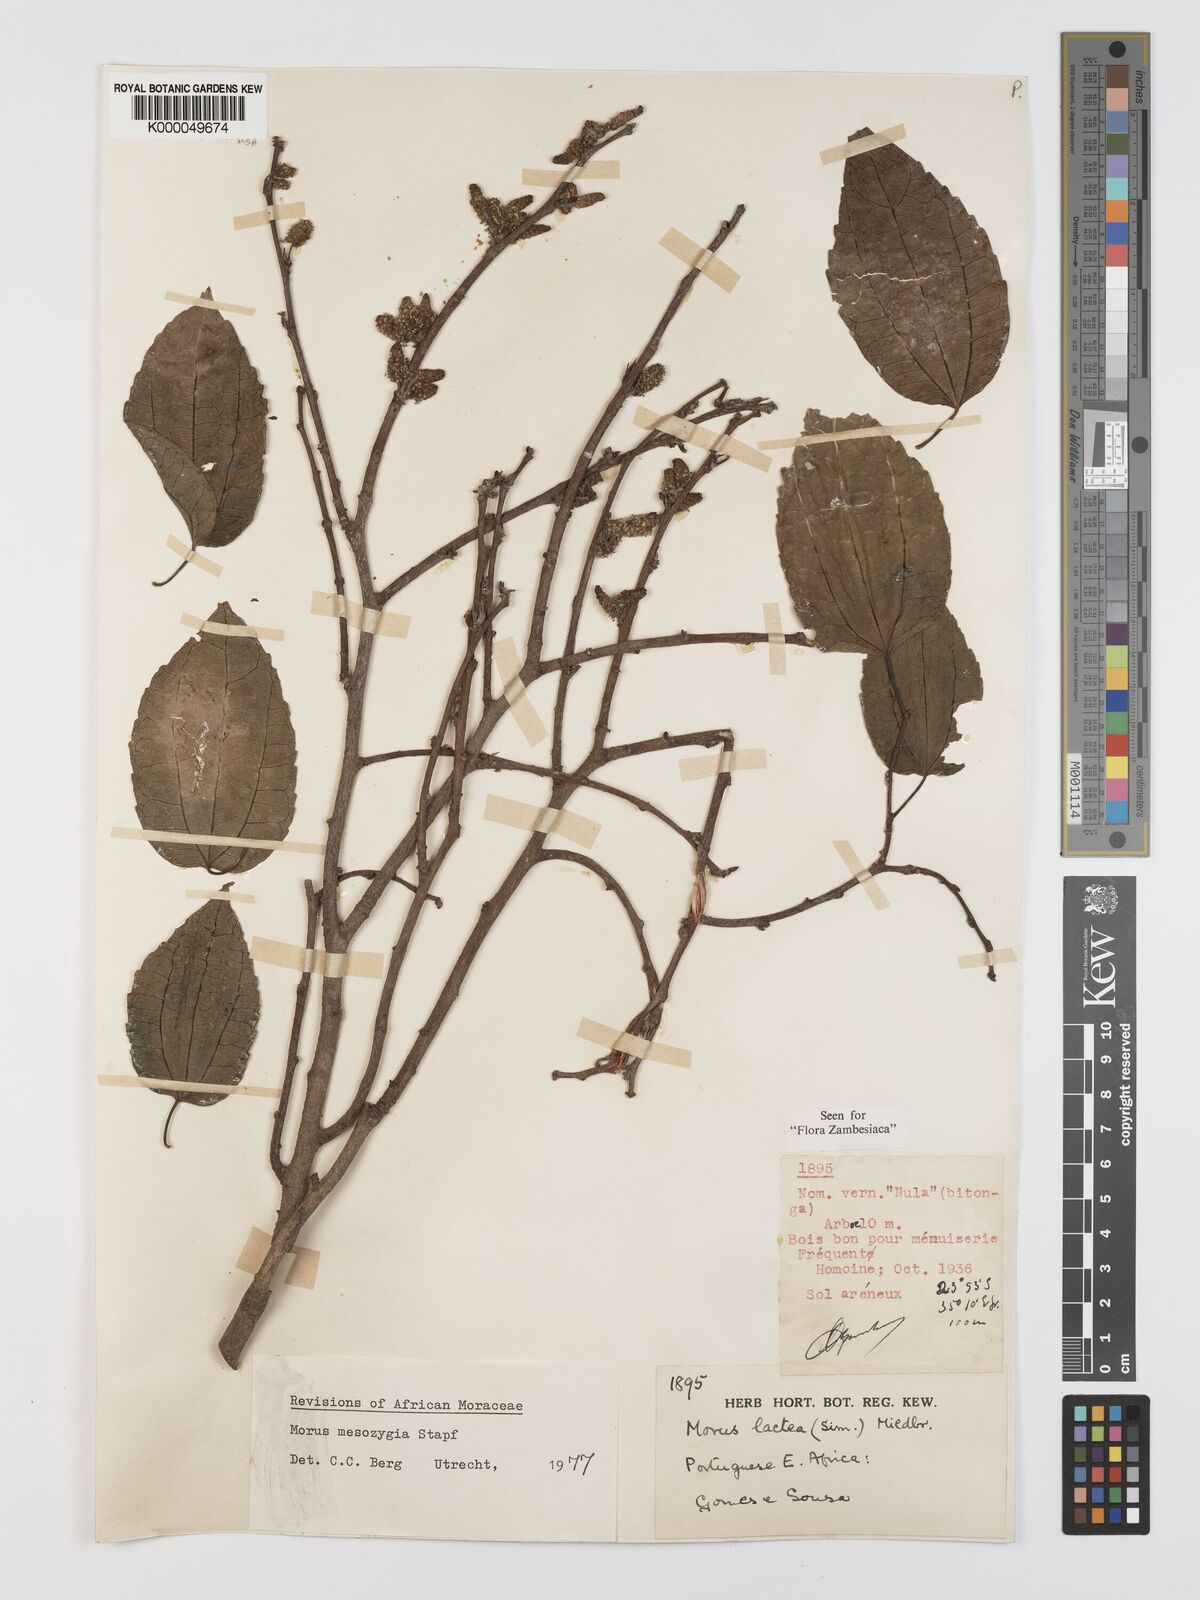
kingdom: Plantae
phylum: Tracheophyta
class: Magnoliopsida
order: Rosales
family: Moraceae
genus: Afromorus
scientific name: Afromorus mesozygia
